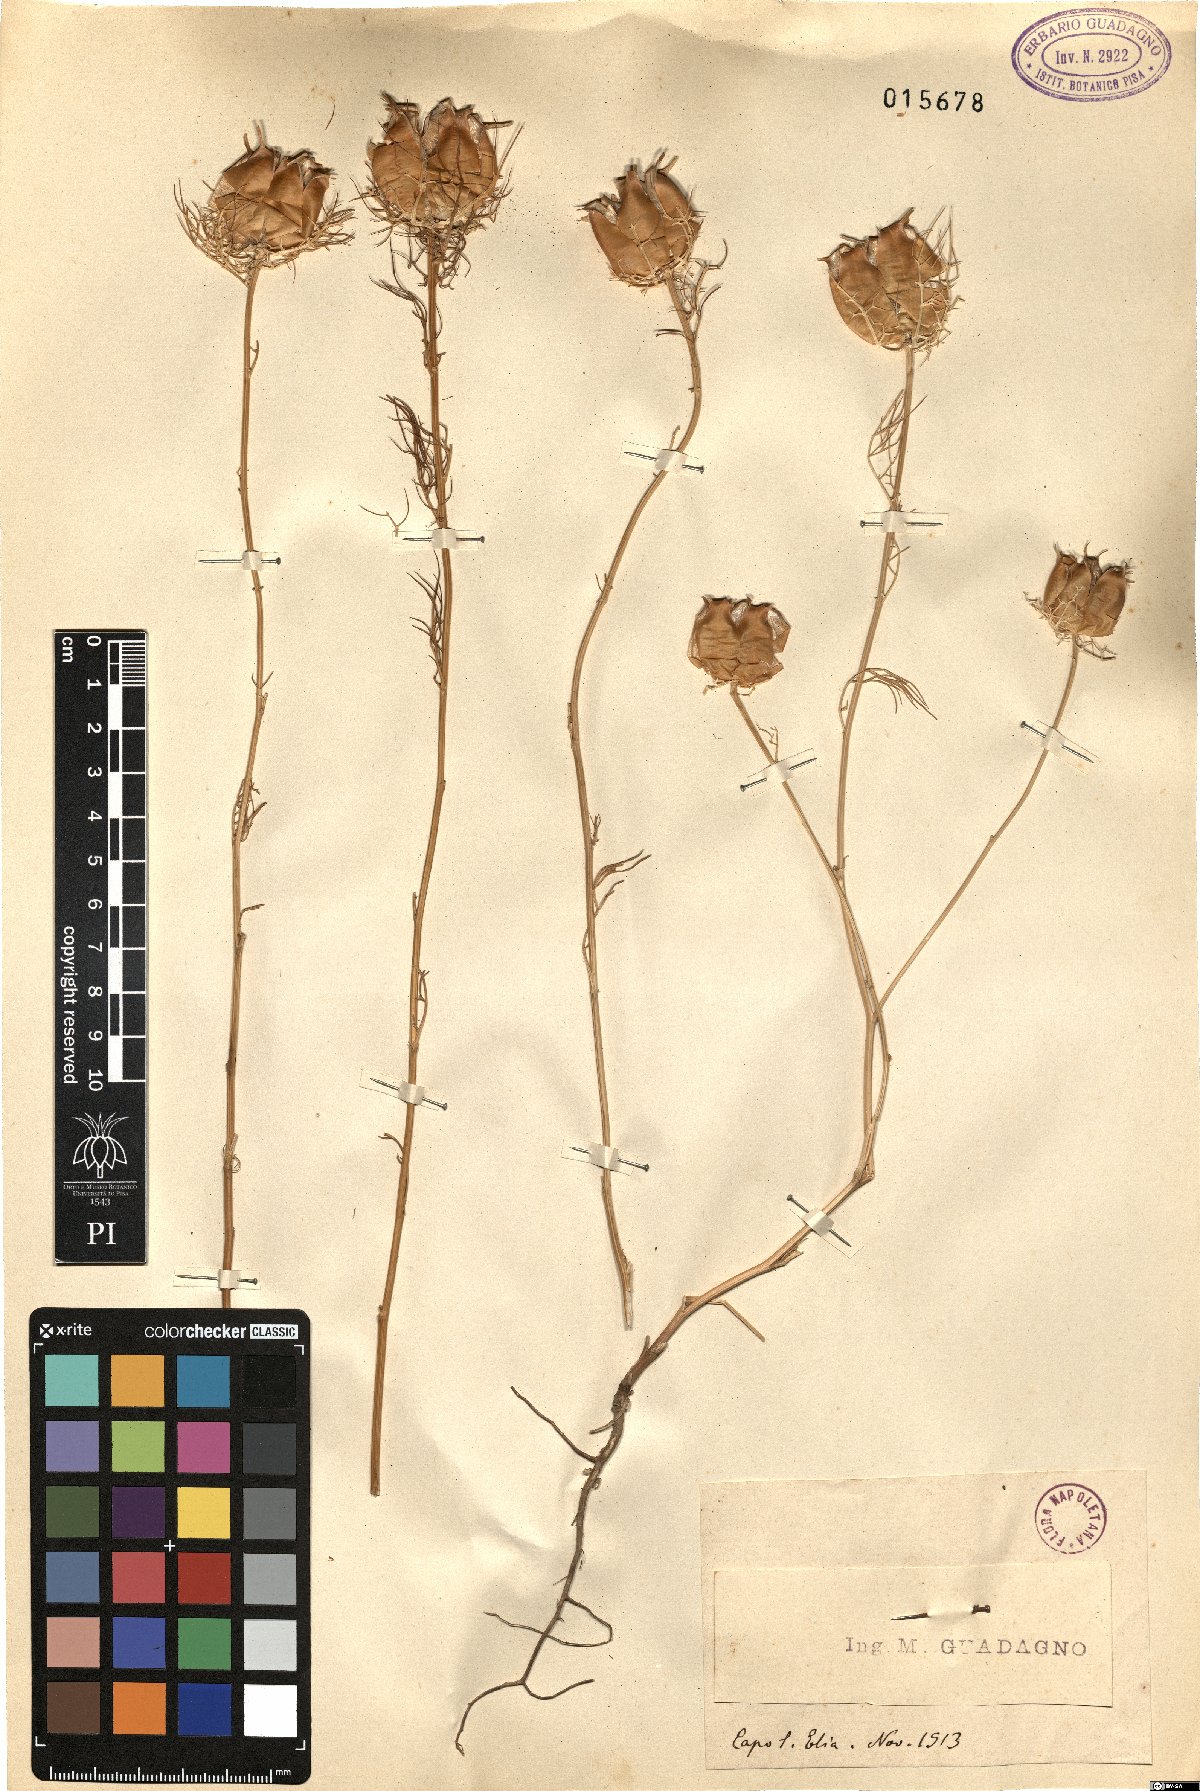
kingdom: Plantae
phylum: Tracheophyta
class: Magnoliopsida
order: Ranunculales
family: Ranunculaceae
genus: Nigella
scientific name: Nigella
